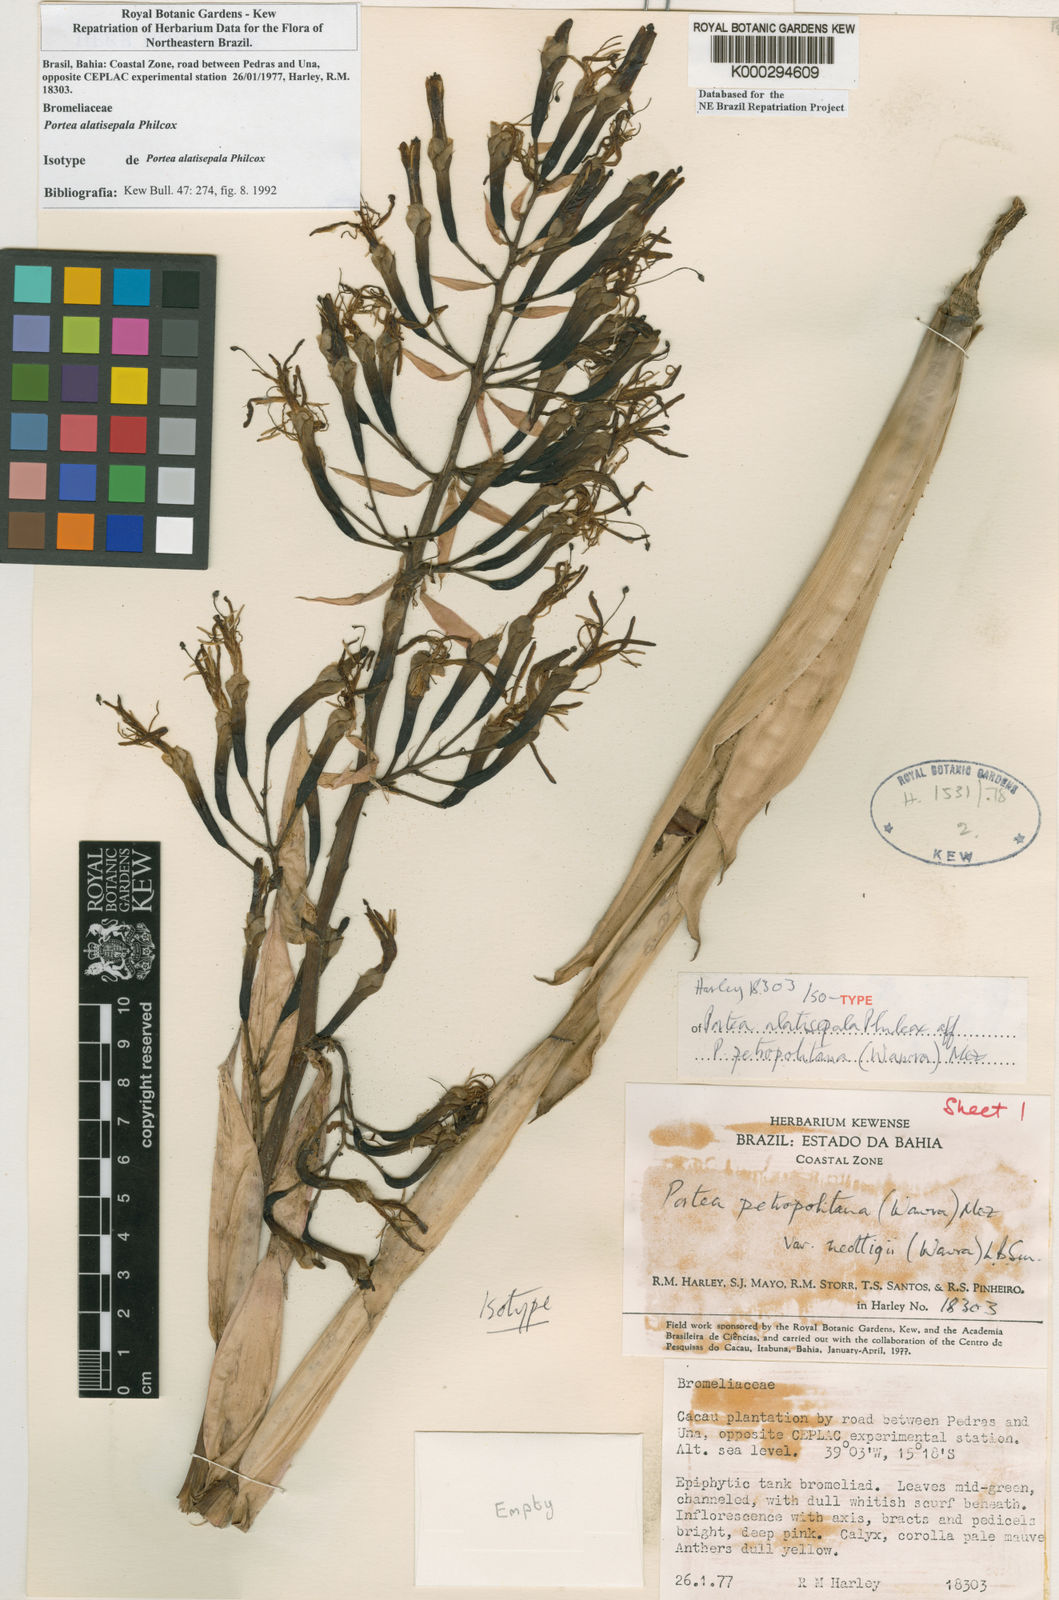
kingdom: Plantae
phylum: Tracheophyta
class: Liliopsida
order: Poales
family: Bromeliaceae
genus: Portea
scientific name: Portea alatisepala
